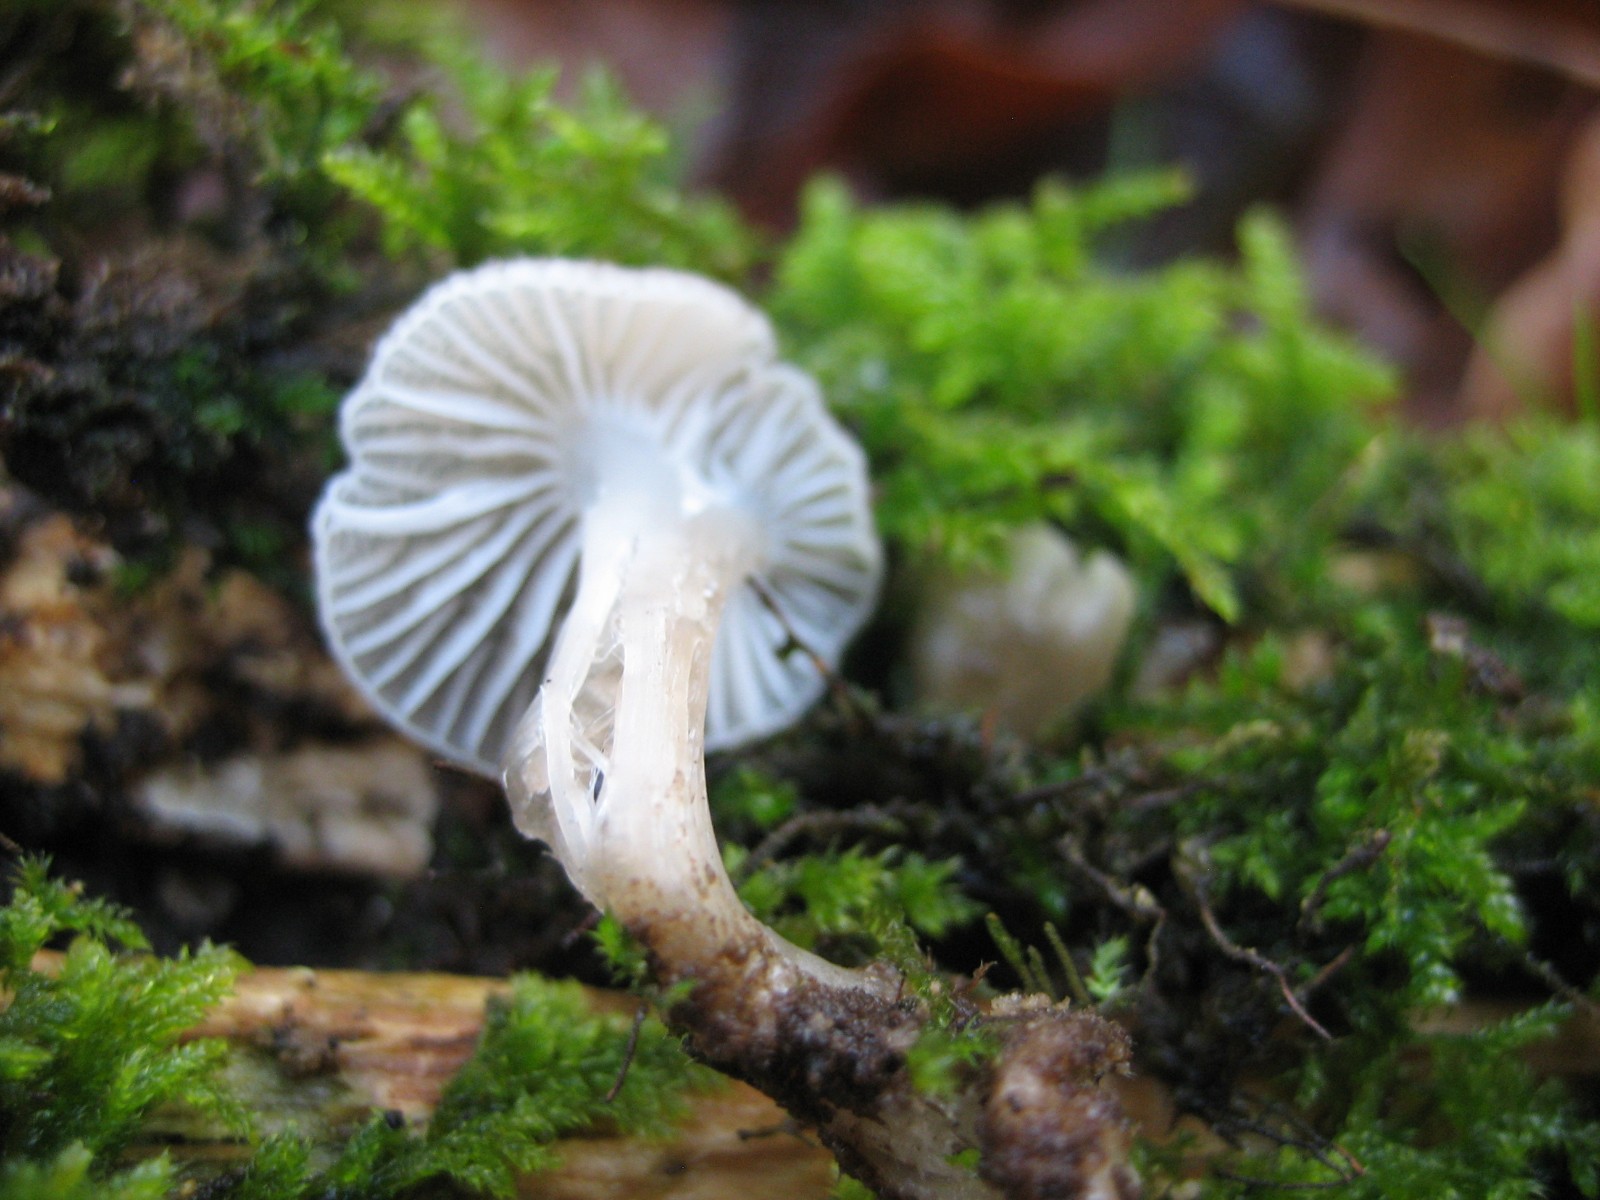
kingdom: Fungi
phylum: Basidiomycota
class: Agaricomycetes
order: Agaricales
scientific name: Agaricales
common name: champignonordenen
